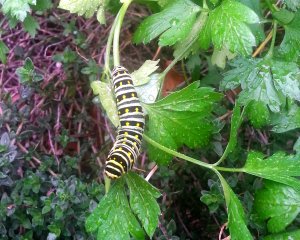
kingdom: Animalia
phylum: Arthropoda
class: Insecta
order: Lepidoptera
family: Papilionidae
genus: Papilio
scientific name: Papilio
